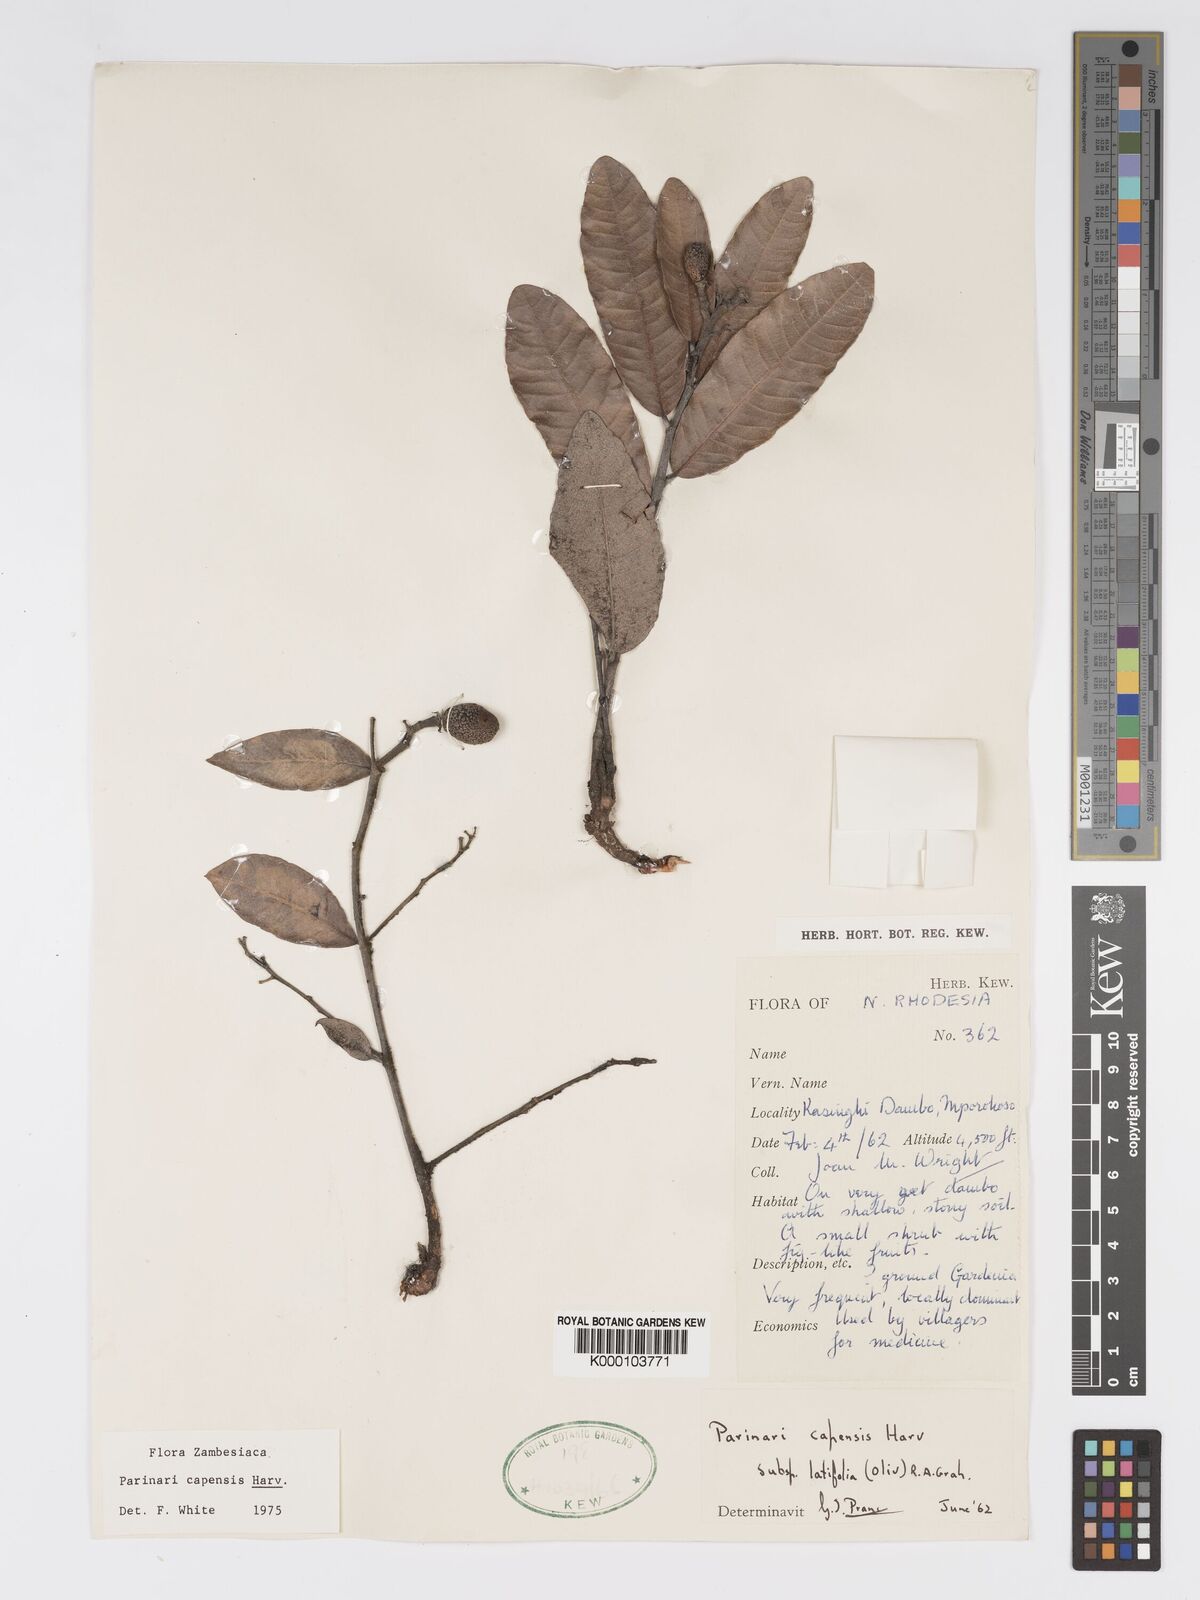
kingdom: Plantae
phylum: Tracheophyta
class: Magnoliopsida
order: Malpighiales
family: Chrysobalanaceae
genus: Parinari
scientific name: Parinari capensis
